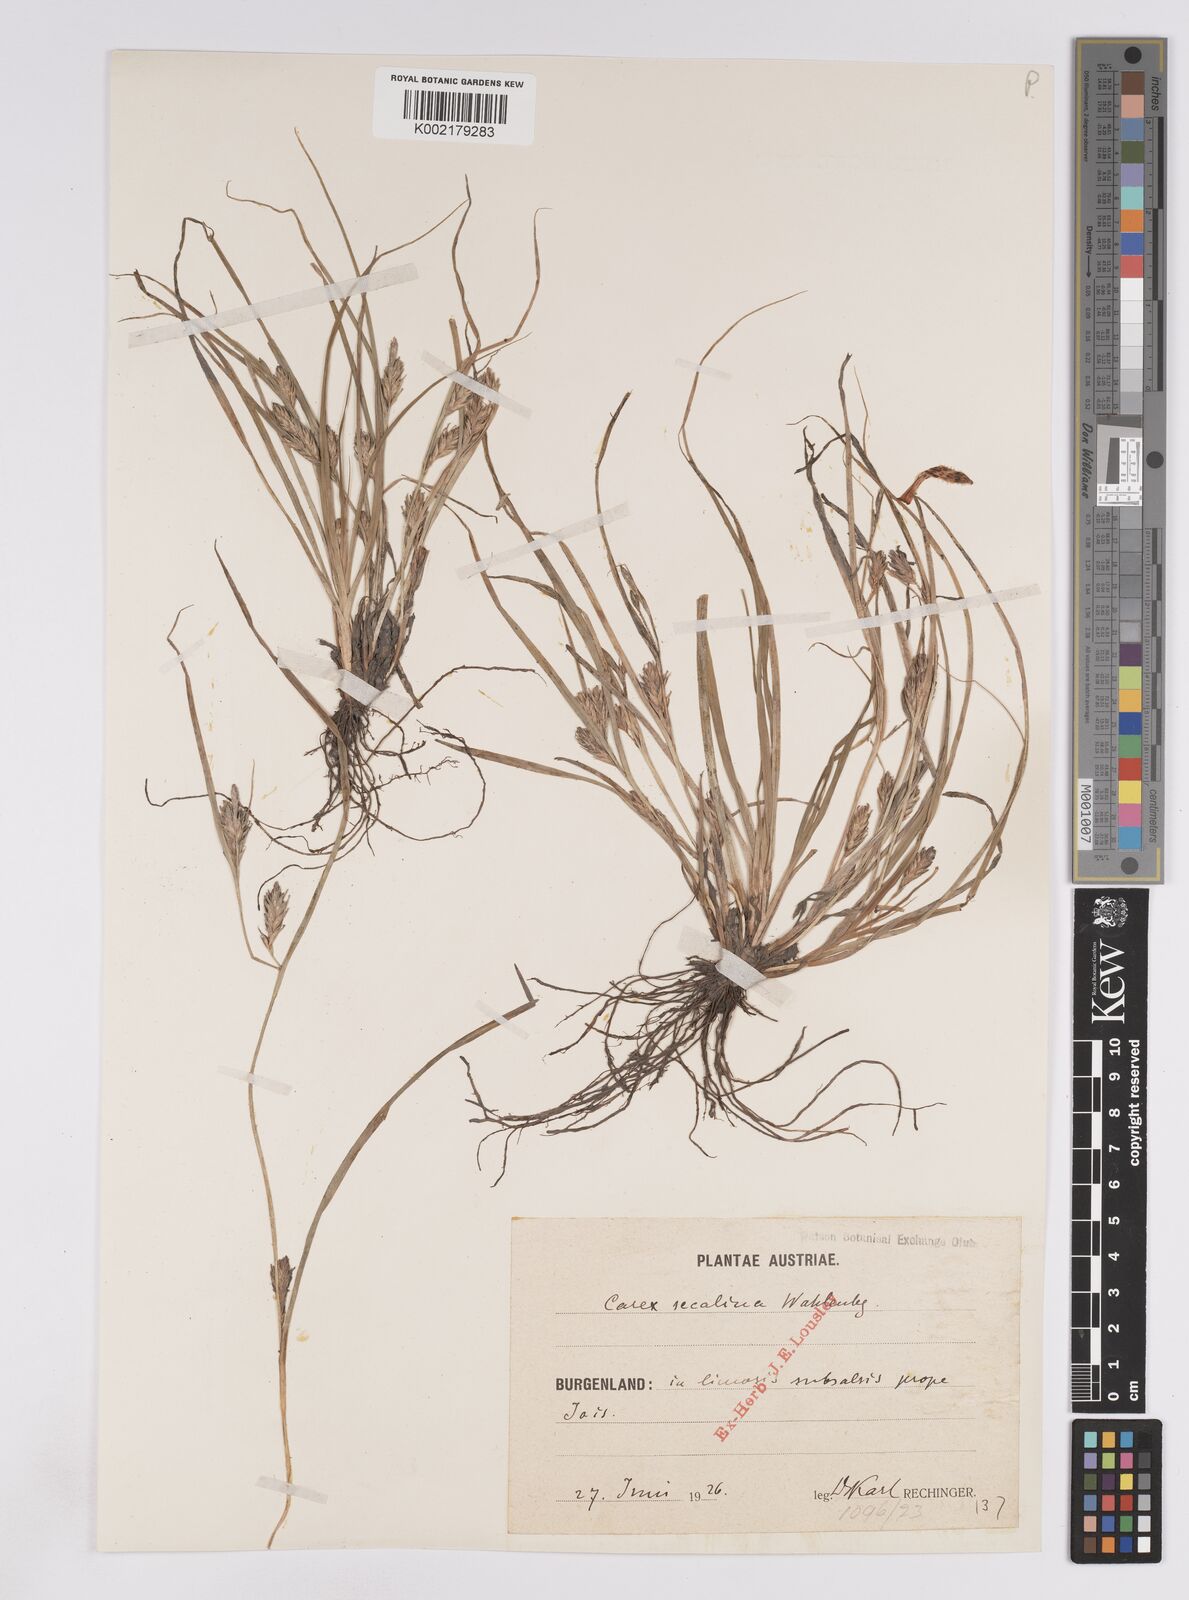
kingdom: Plantae
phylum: Tracheophyta
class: Liliopsida
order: Poales
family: Cyperaceae
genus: Carex
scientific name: Carex hordeistichos
